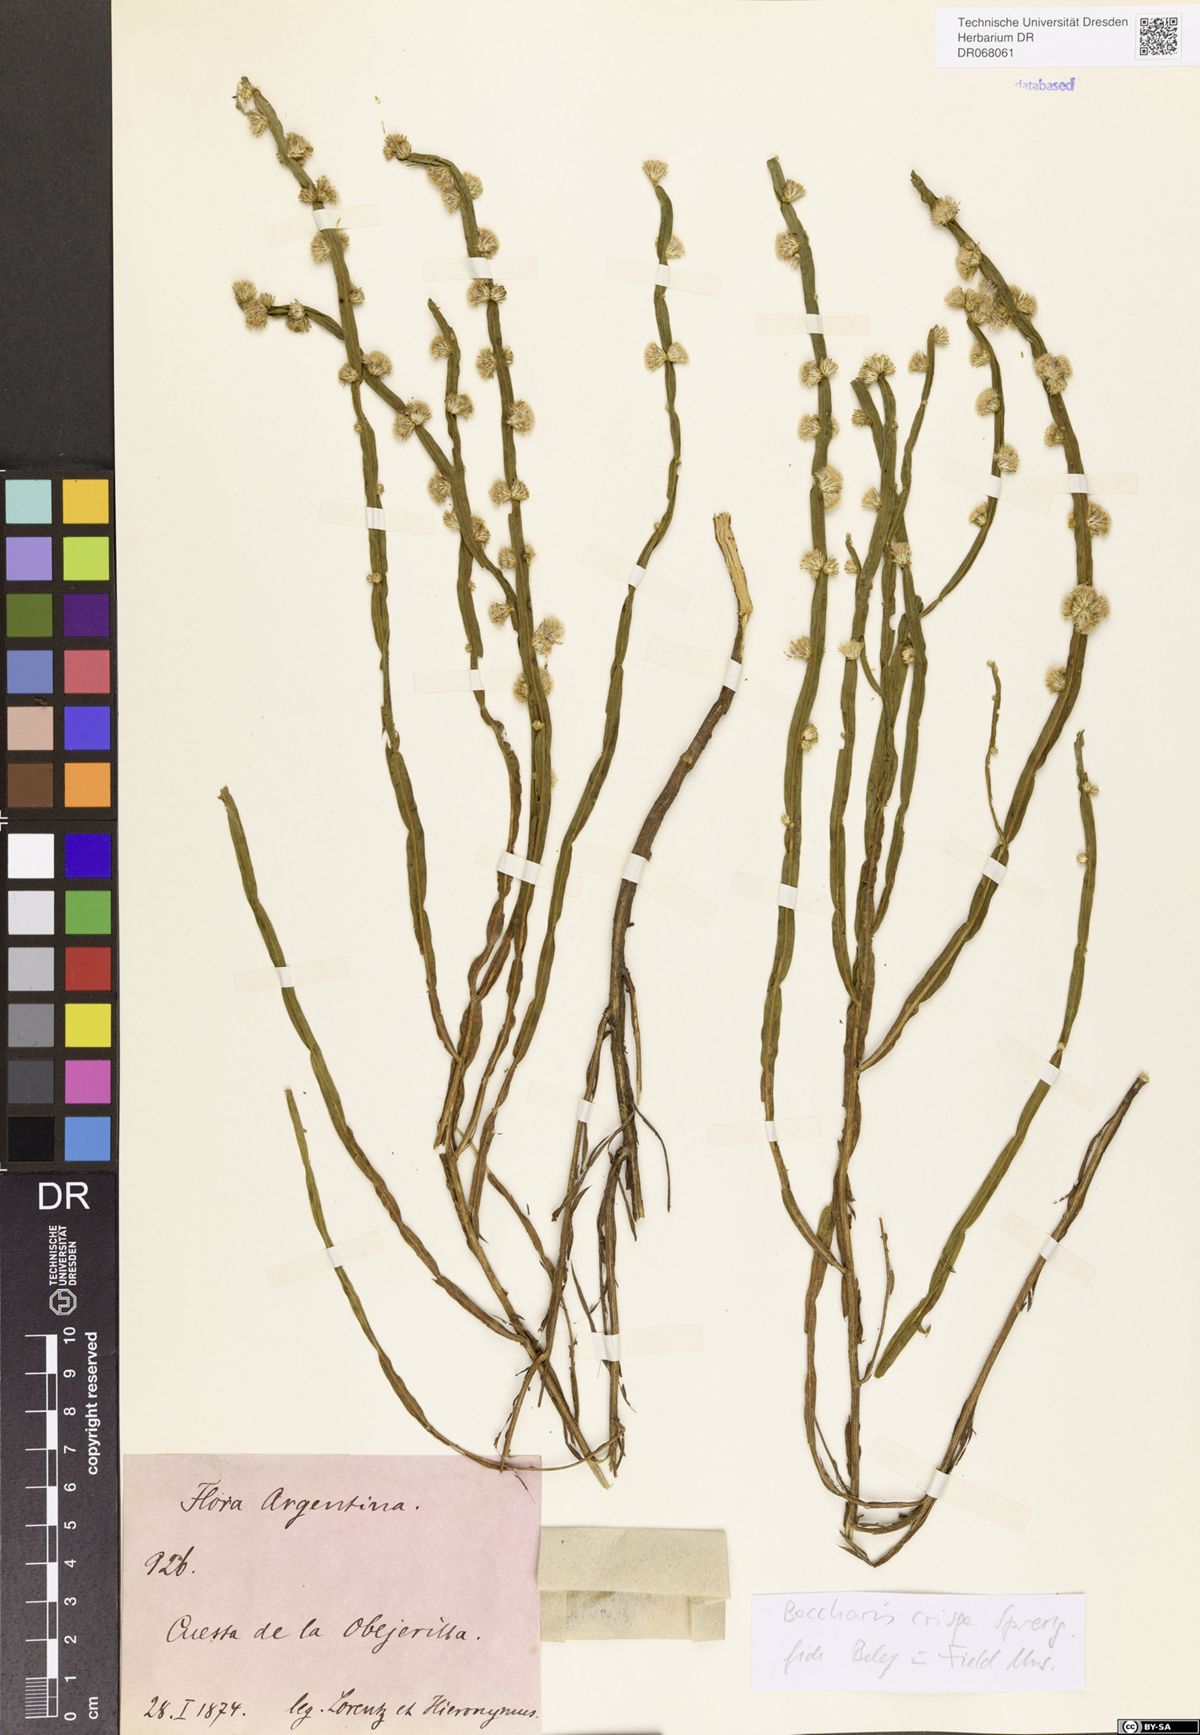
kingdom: Plantae
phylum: Tracheophyta
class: Magnoliopsida
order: Asterales
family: Asteraceae
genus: Baccharis
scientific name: Baccharis crispa
